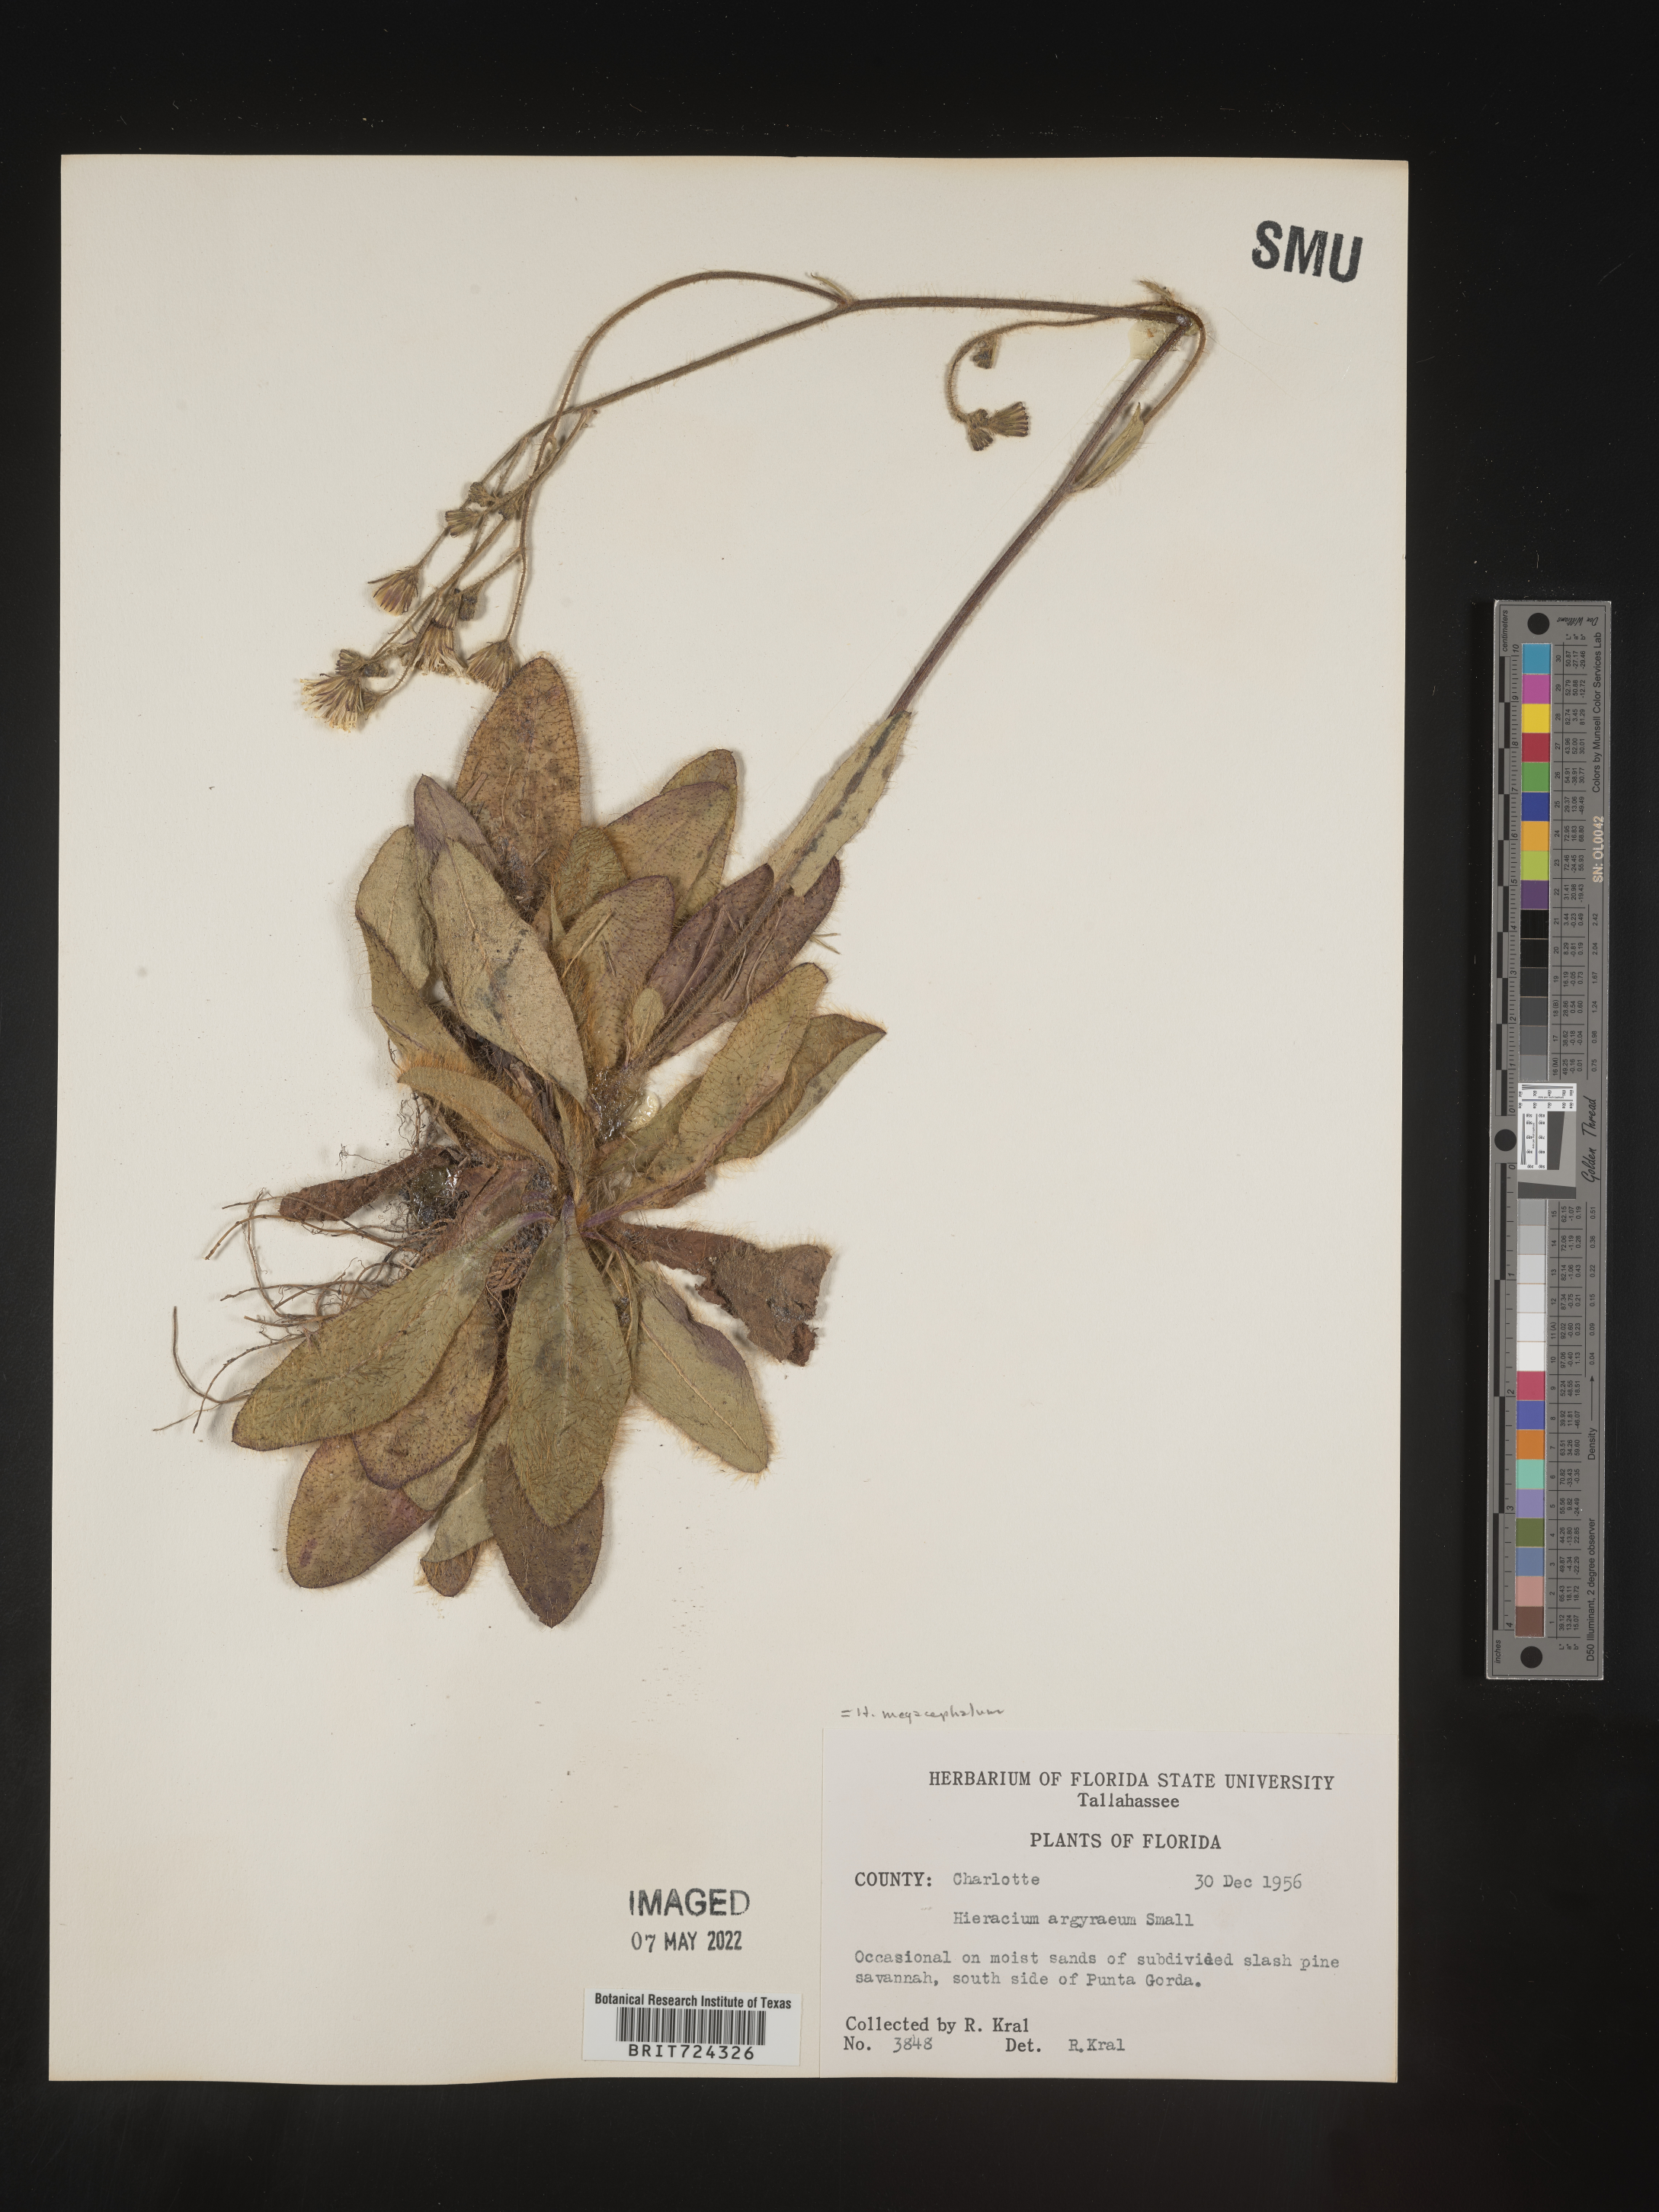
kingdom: Plantae
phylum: Tracheophyta
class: Magnoliopsida
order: Asterales
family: Asteraceae
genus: Hieracium
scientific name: Hieracium
